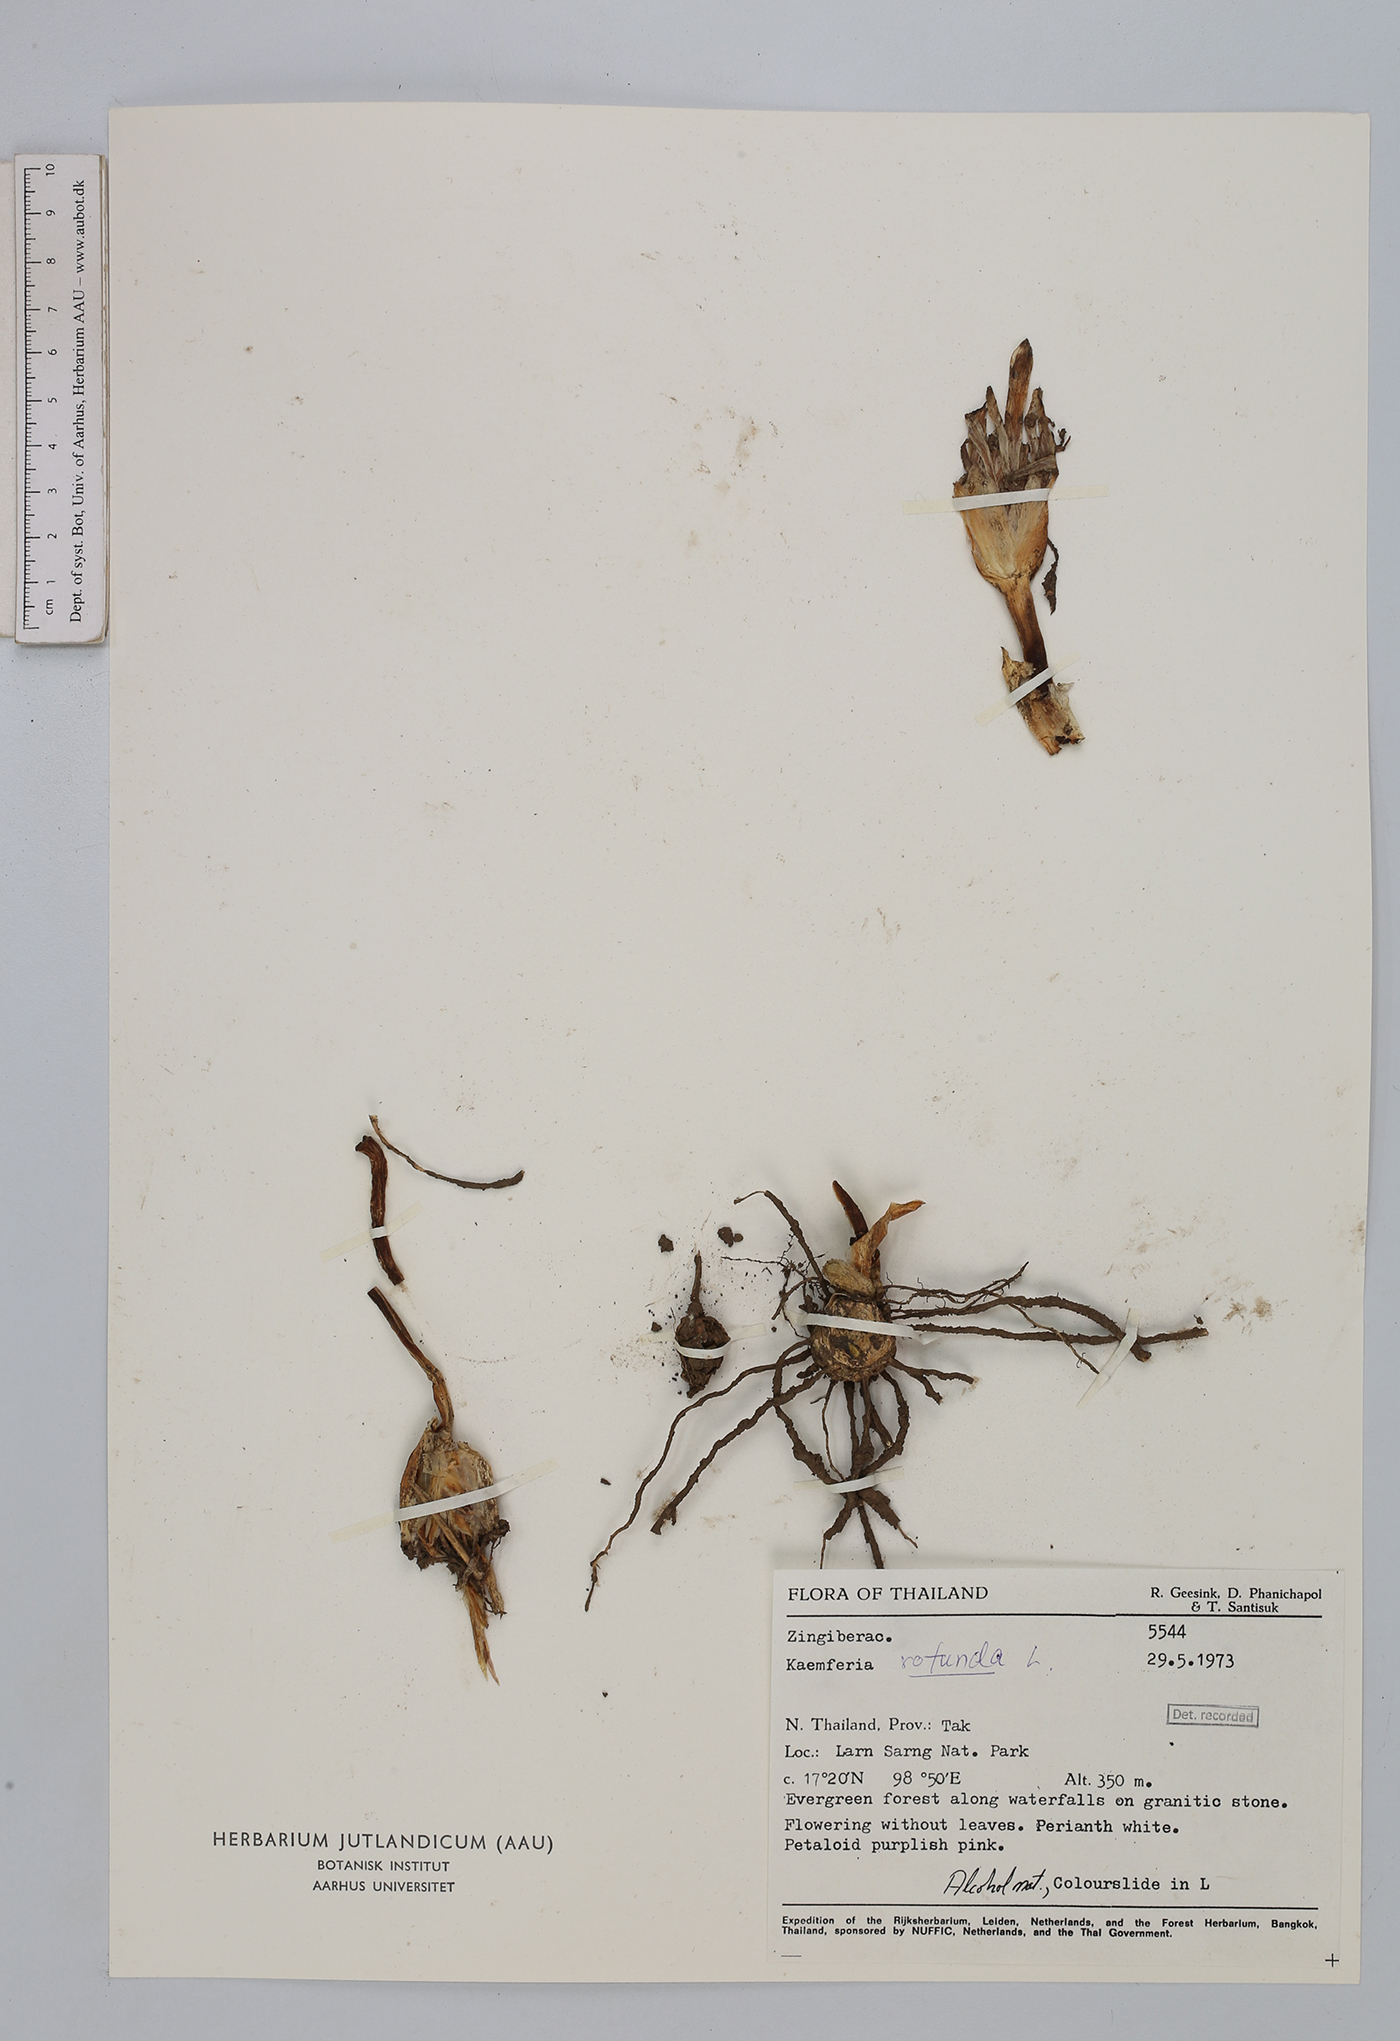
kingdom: Plantae
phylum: Tracheophyta
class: Liliopsida
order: Zingiberales
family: Zingiberaceae
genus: Kaempferia
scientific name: Kaempferia rotunda
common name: Tropical-crocus
